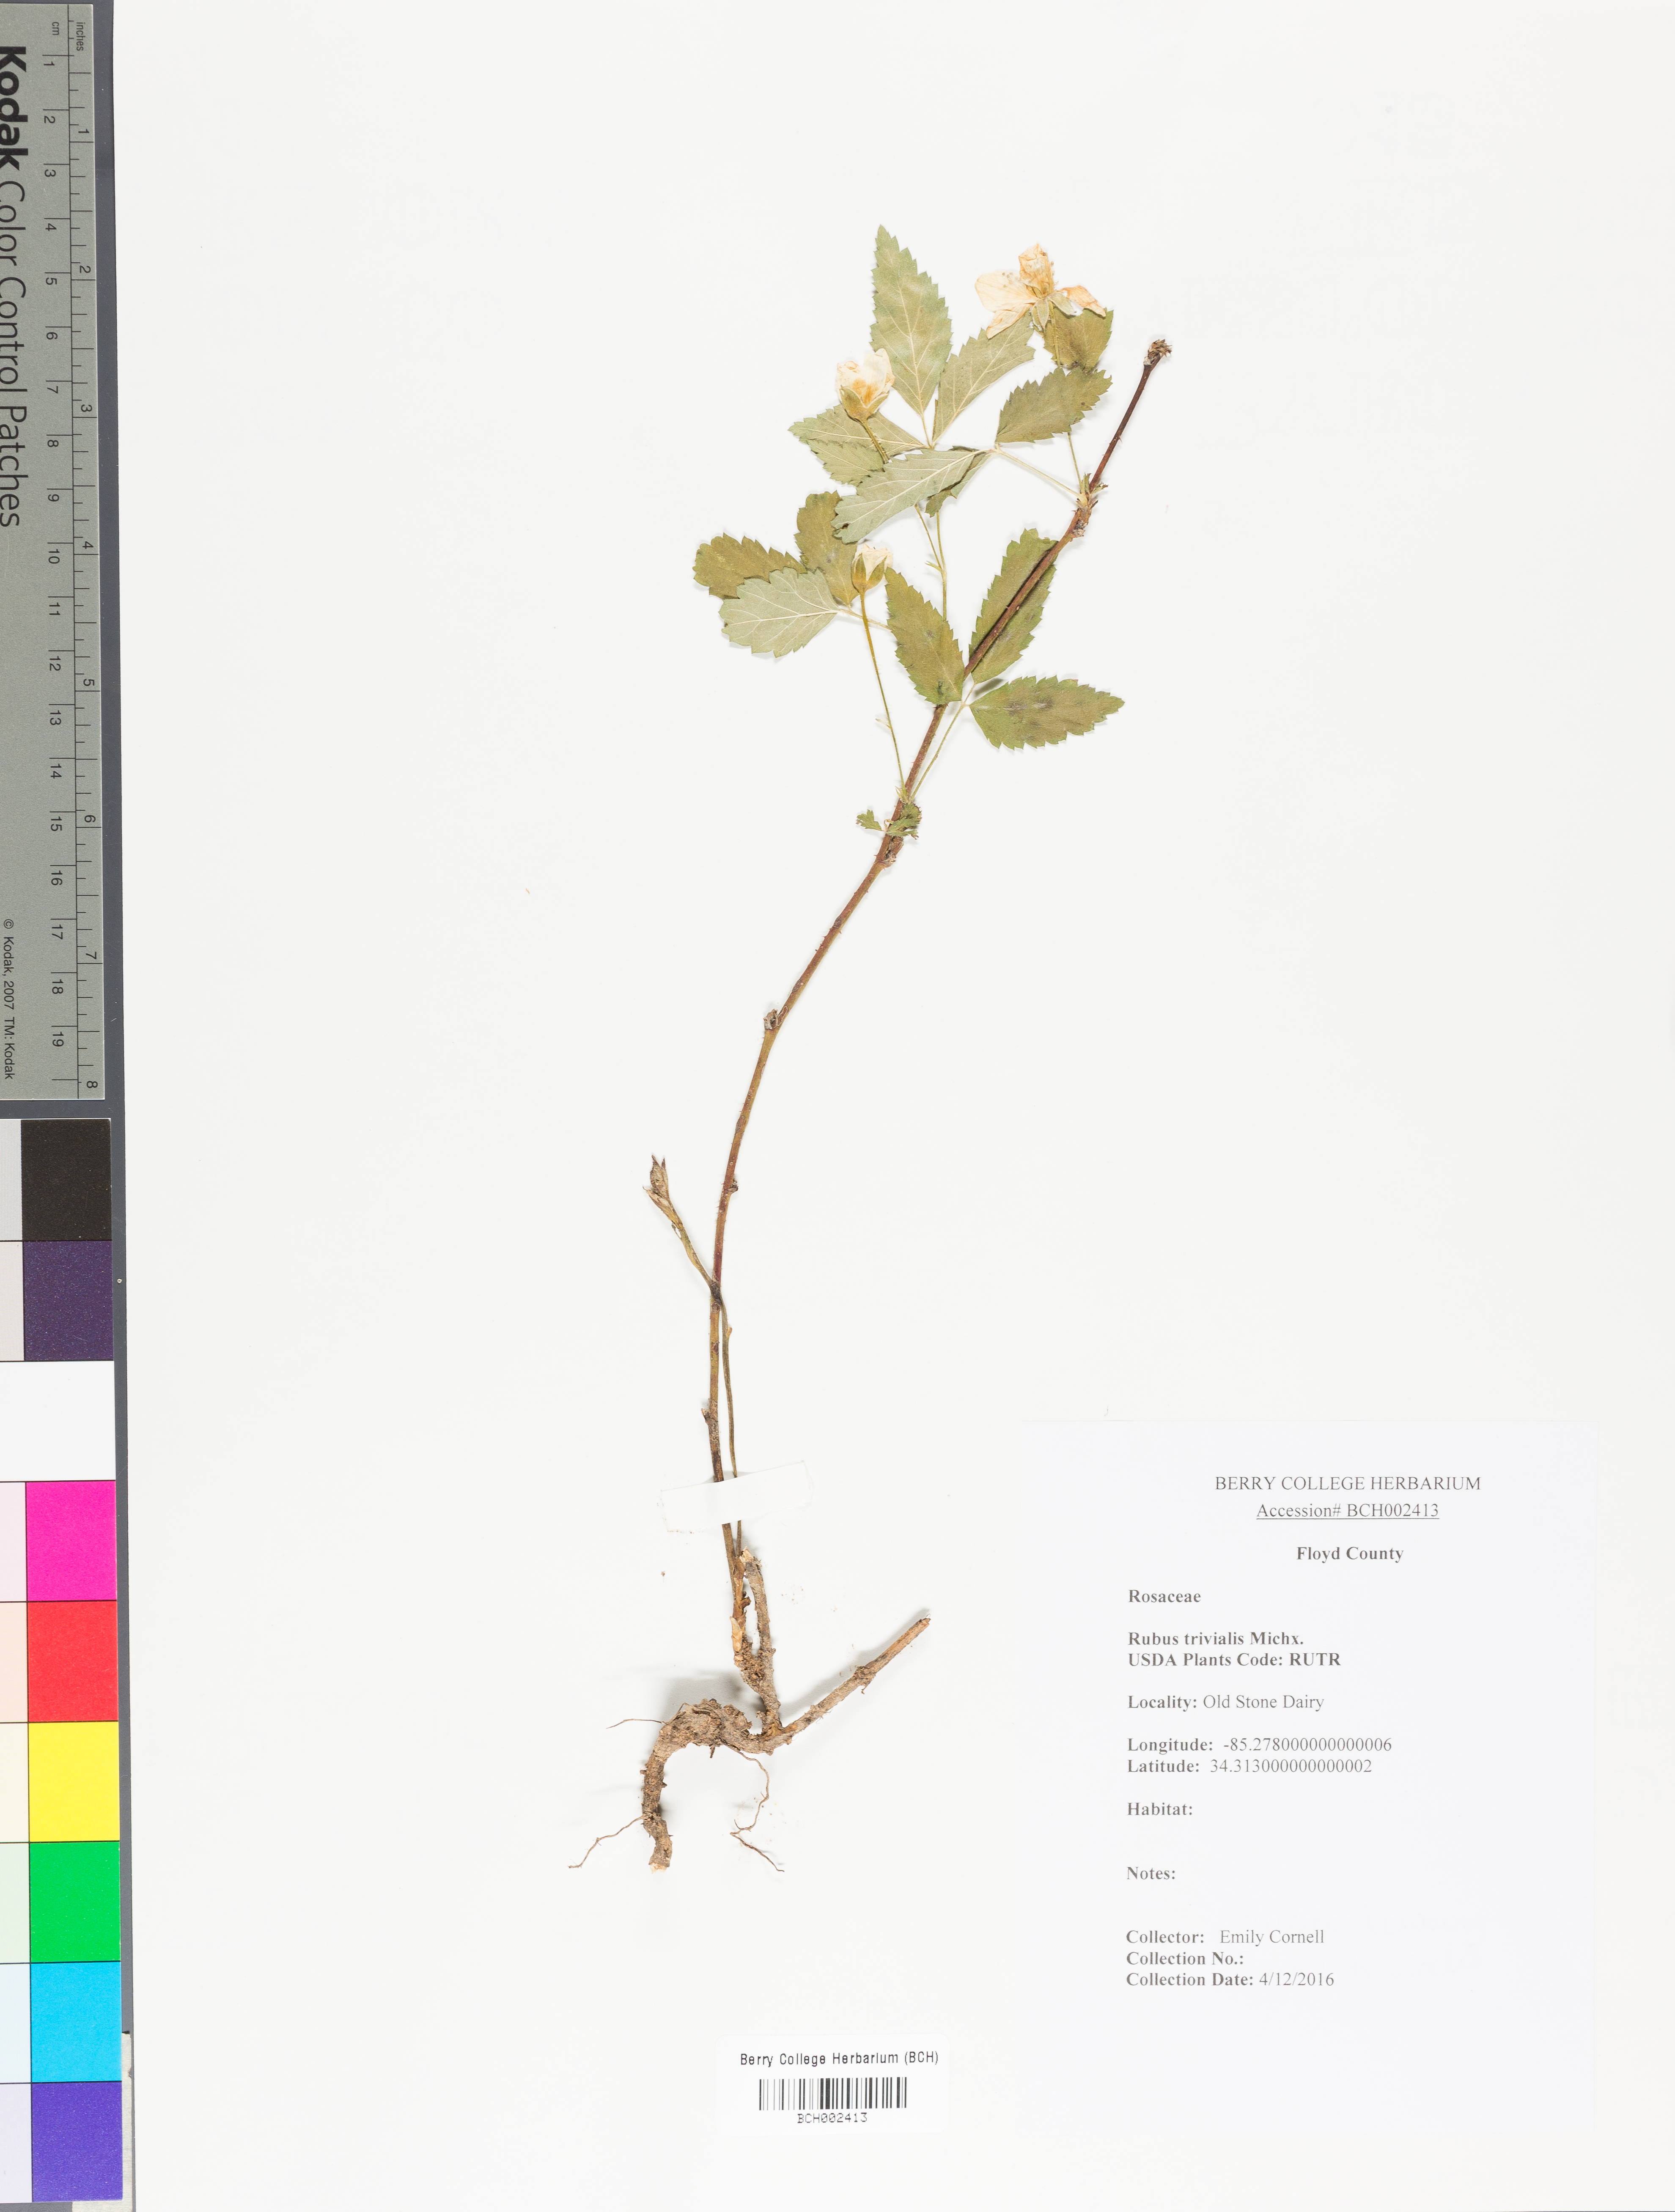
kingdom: Plantae
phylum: Tracheophyta
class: Magnoliopsida
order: Rosales
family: Rosaceae
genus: Rubus
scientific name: Rubus trivialis
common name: Southern dewberry
